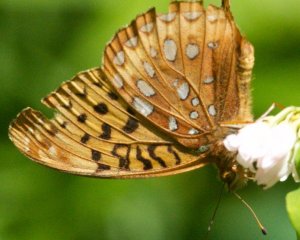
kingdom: Animalia
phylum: Arthropoda
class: Insecta
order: Lepidoptera
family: Nymphalidae
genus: Speyeria
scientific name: Speyeria cybele
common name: Great Spangled Fritillary
